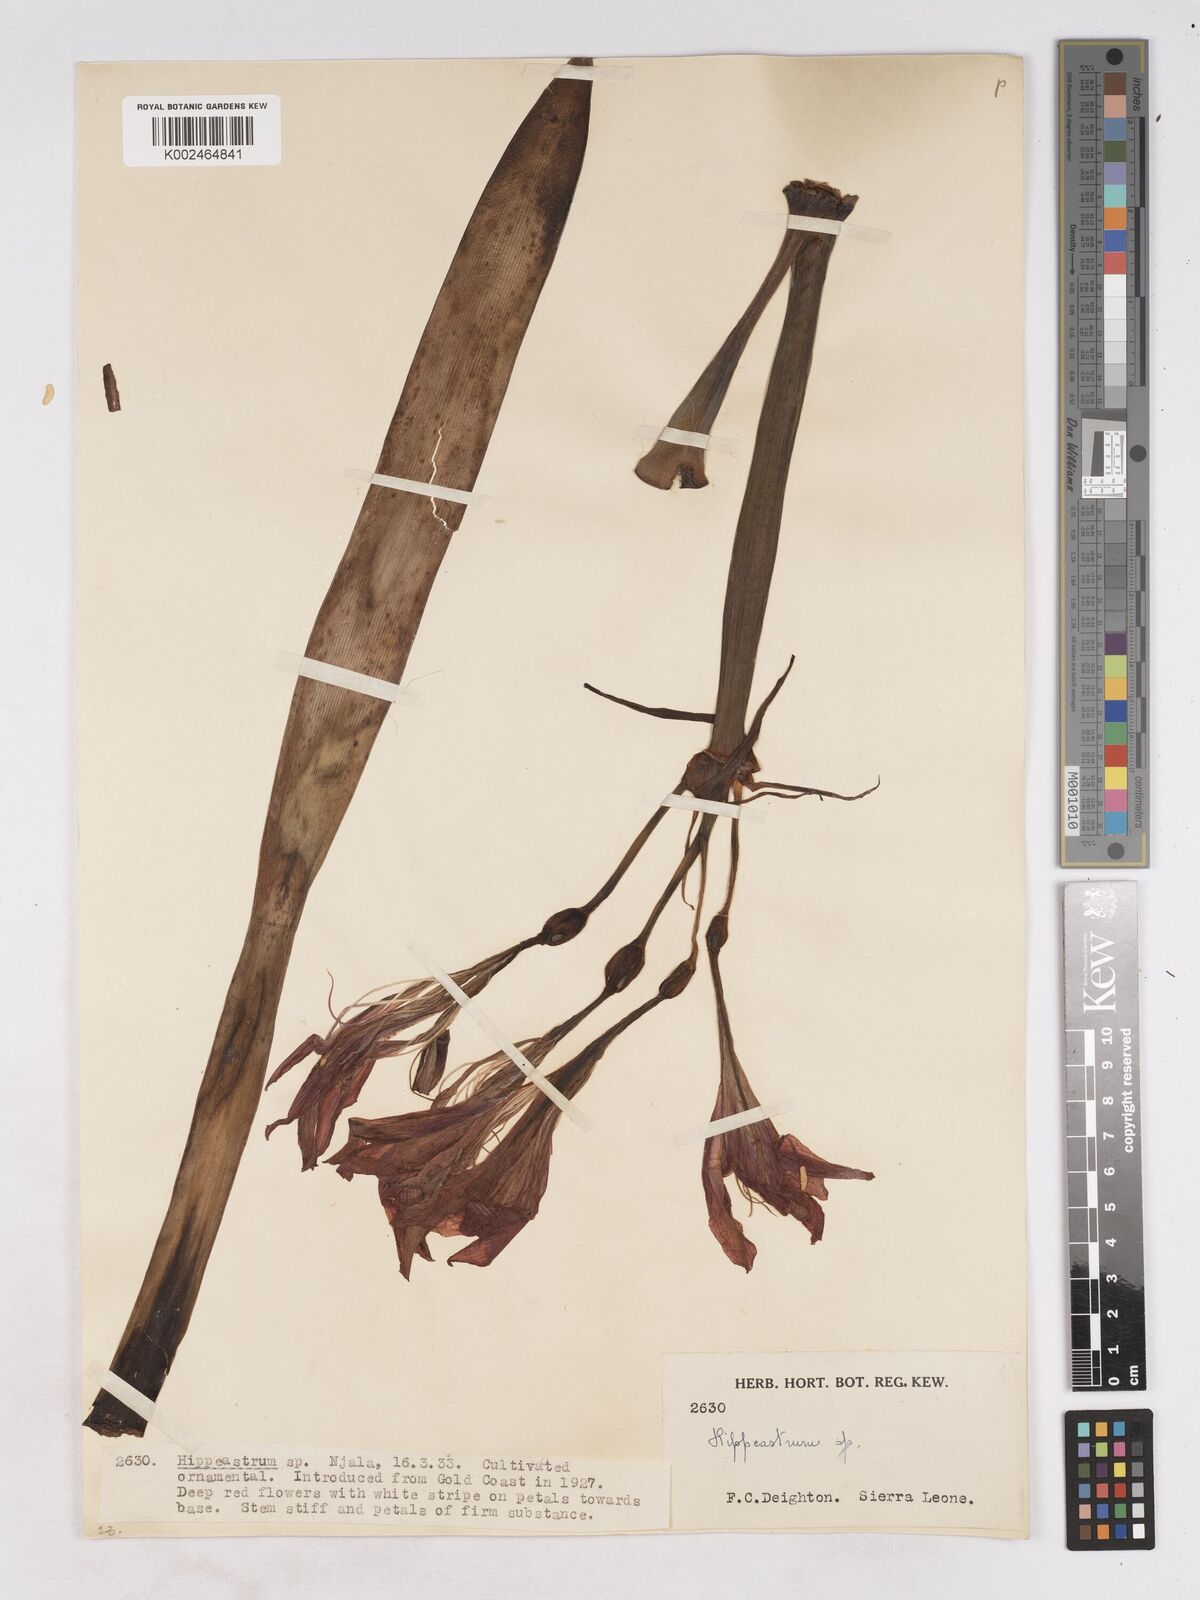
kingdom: Plantae
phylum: Tracheophyta
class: Liliopsida
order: Asparagales
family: Amaryllidaceae
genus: Hippeastrum
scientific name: Hippeastrum puniceum
